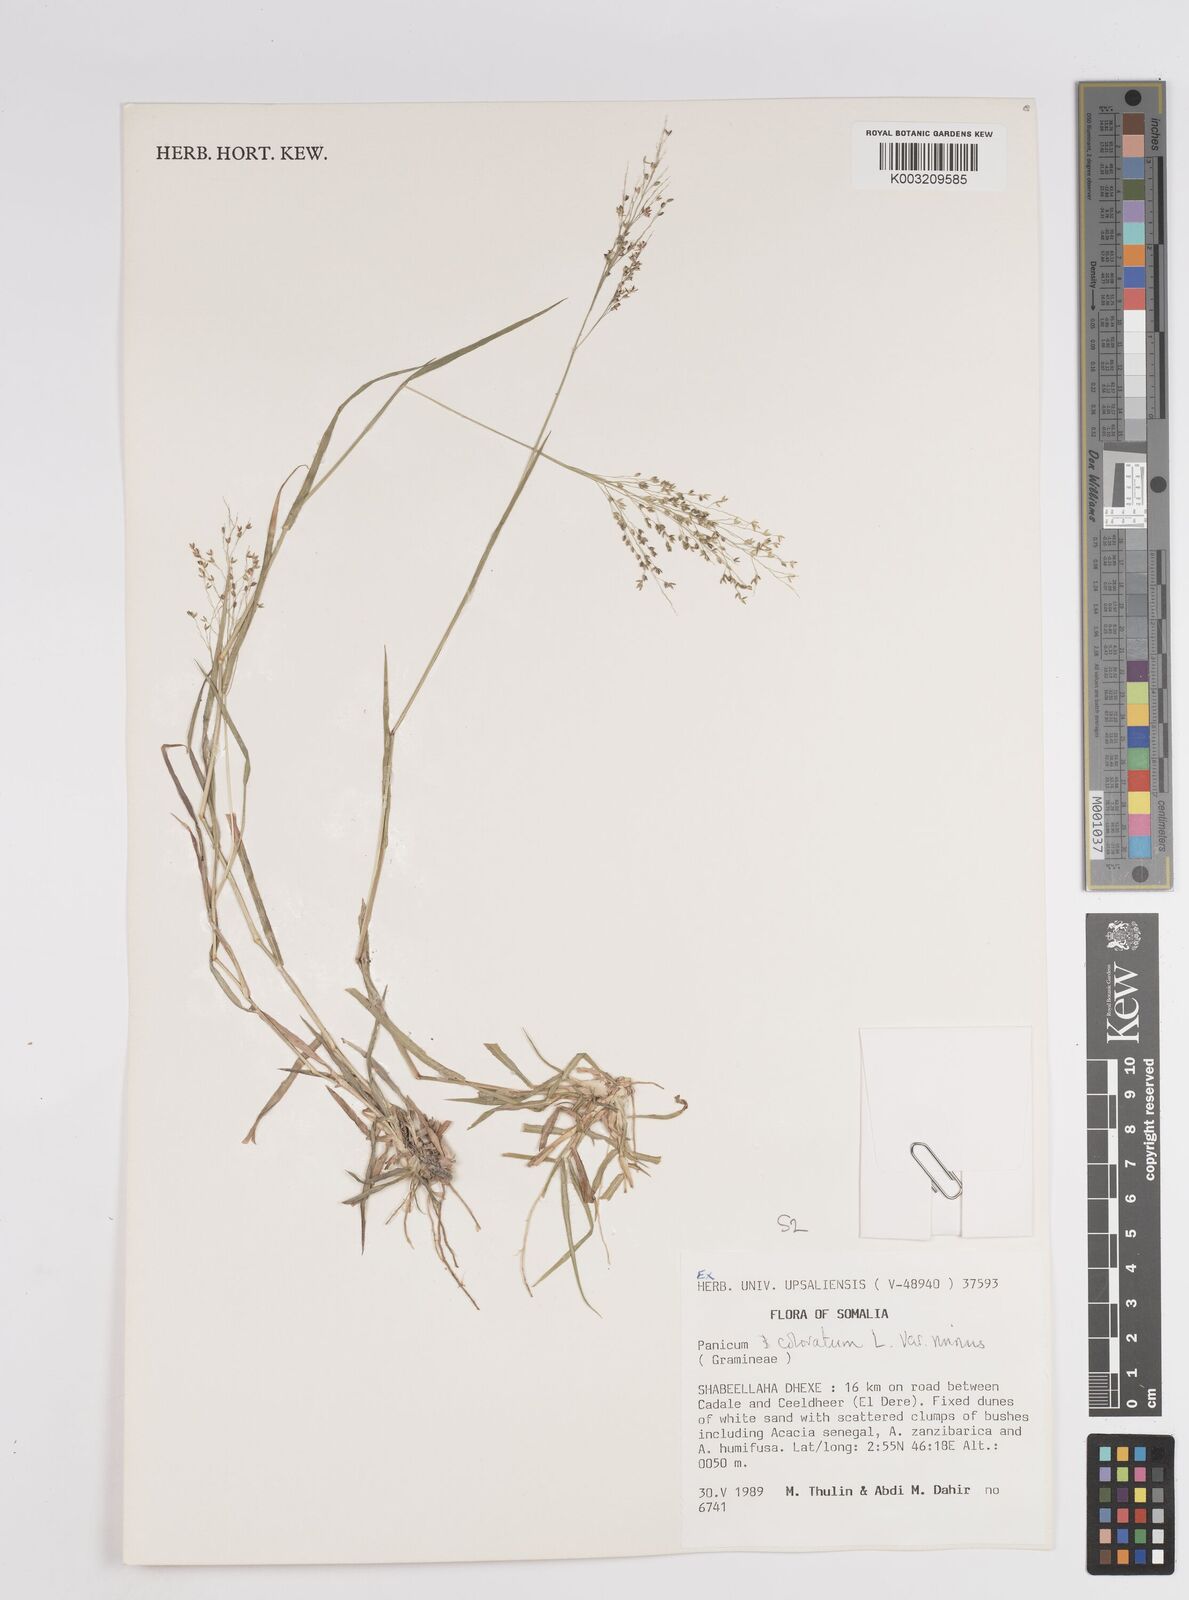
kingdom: Plantae
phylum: Tracheophyta
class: Liliopsida
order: Poales
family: Poaceae
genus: Panicum
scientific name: Panicum coloratum
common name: Kleingrass
